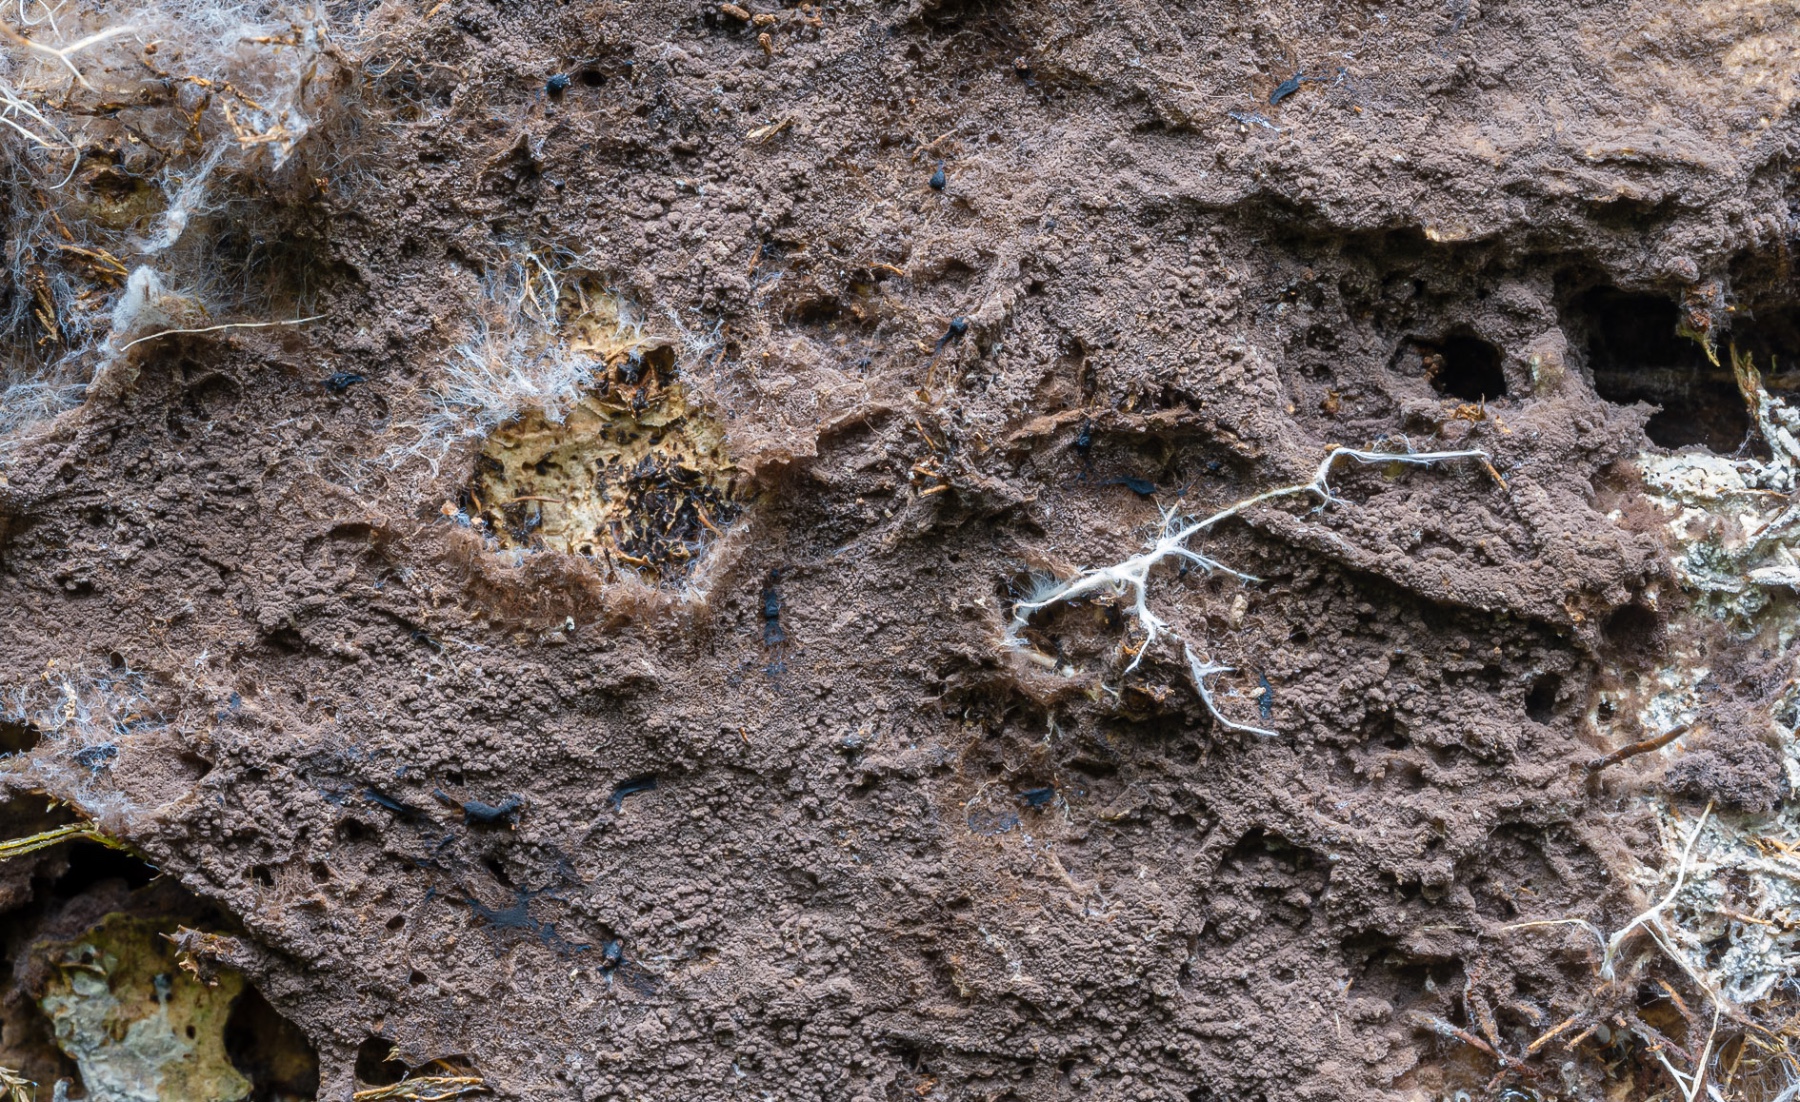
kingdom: Fungi
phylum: Basidiomycota
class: Agaricomycetes
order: Thelephorales
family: Thelephoraceae
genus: Tomentella
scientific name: Tomentella
